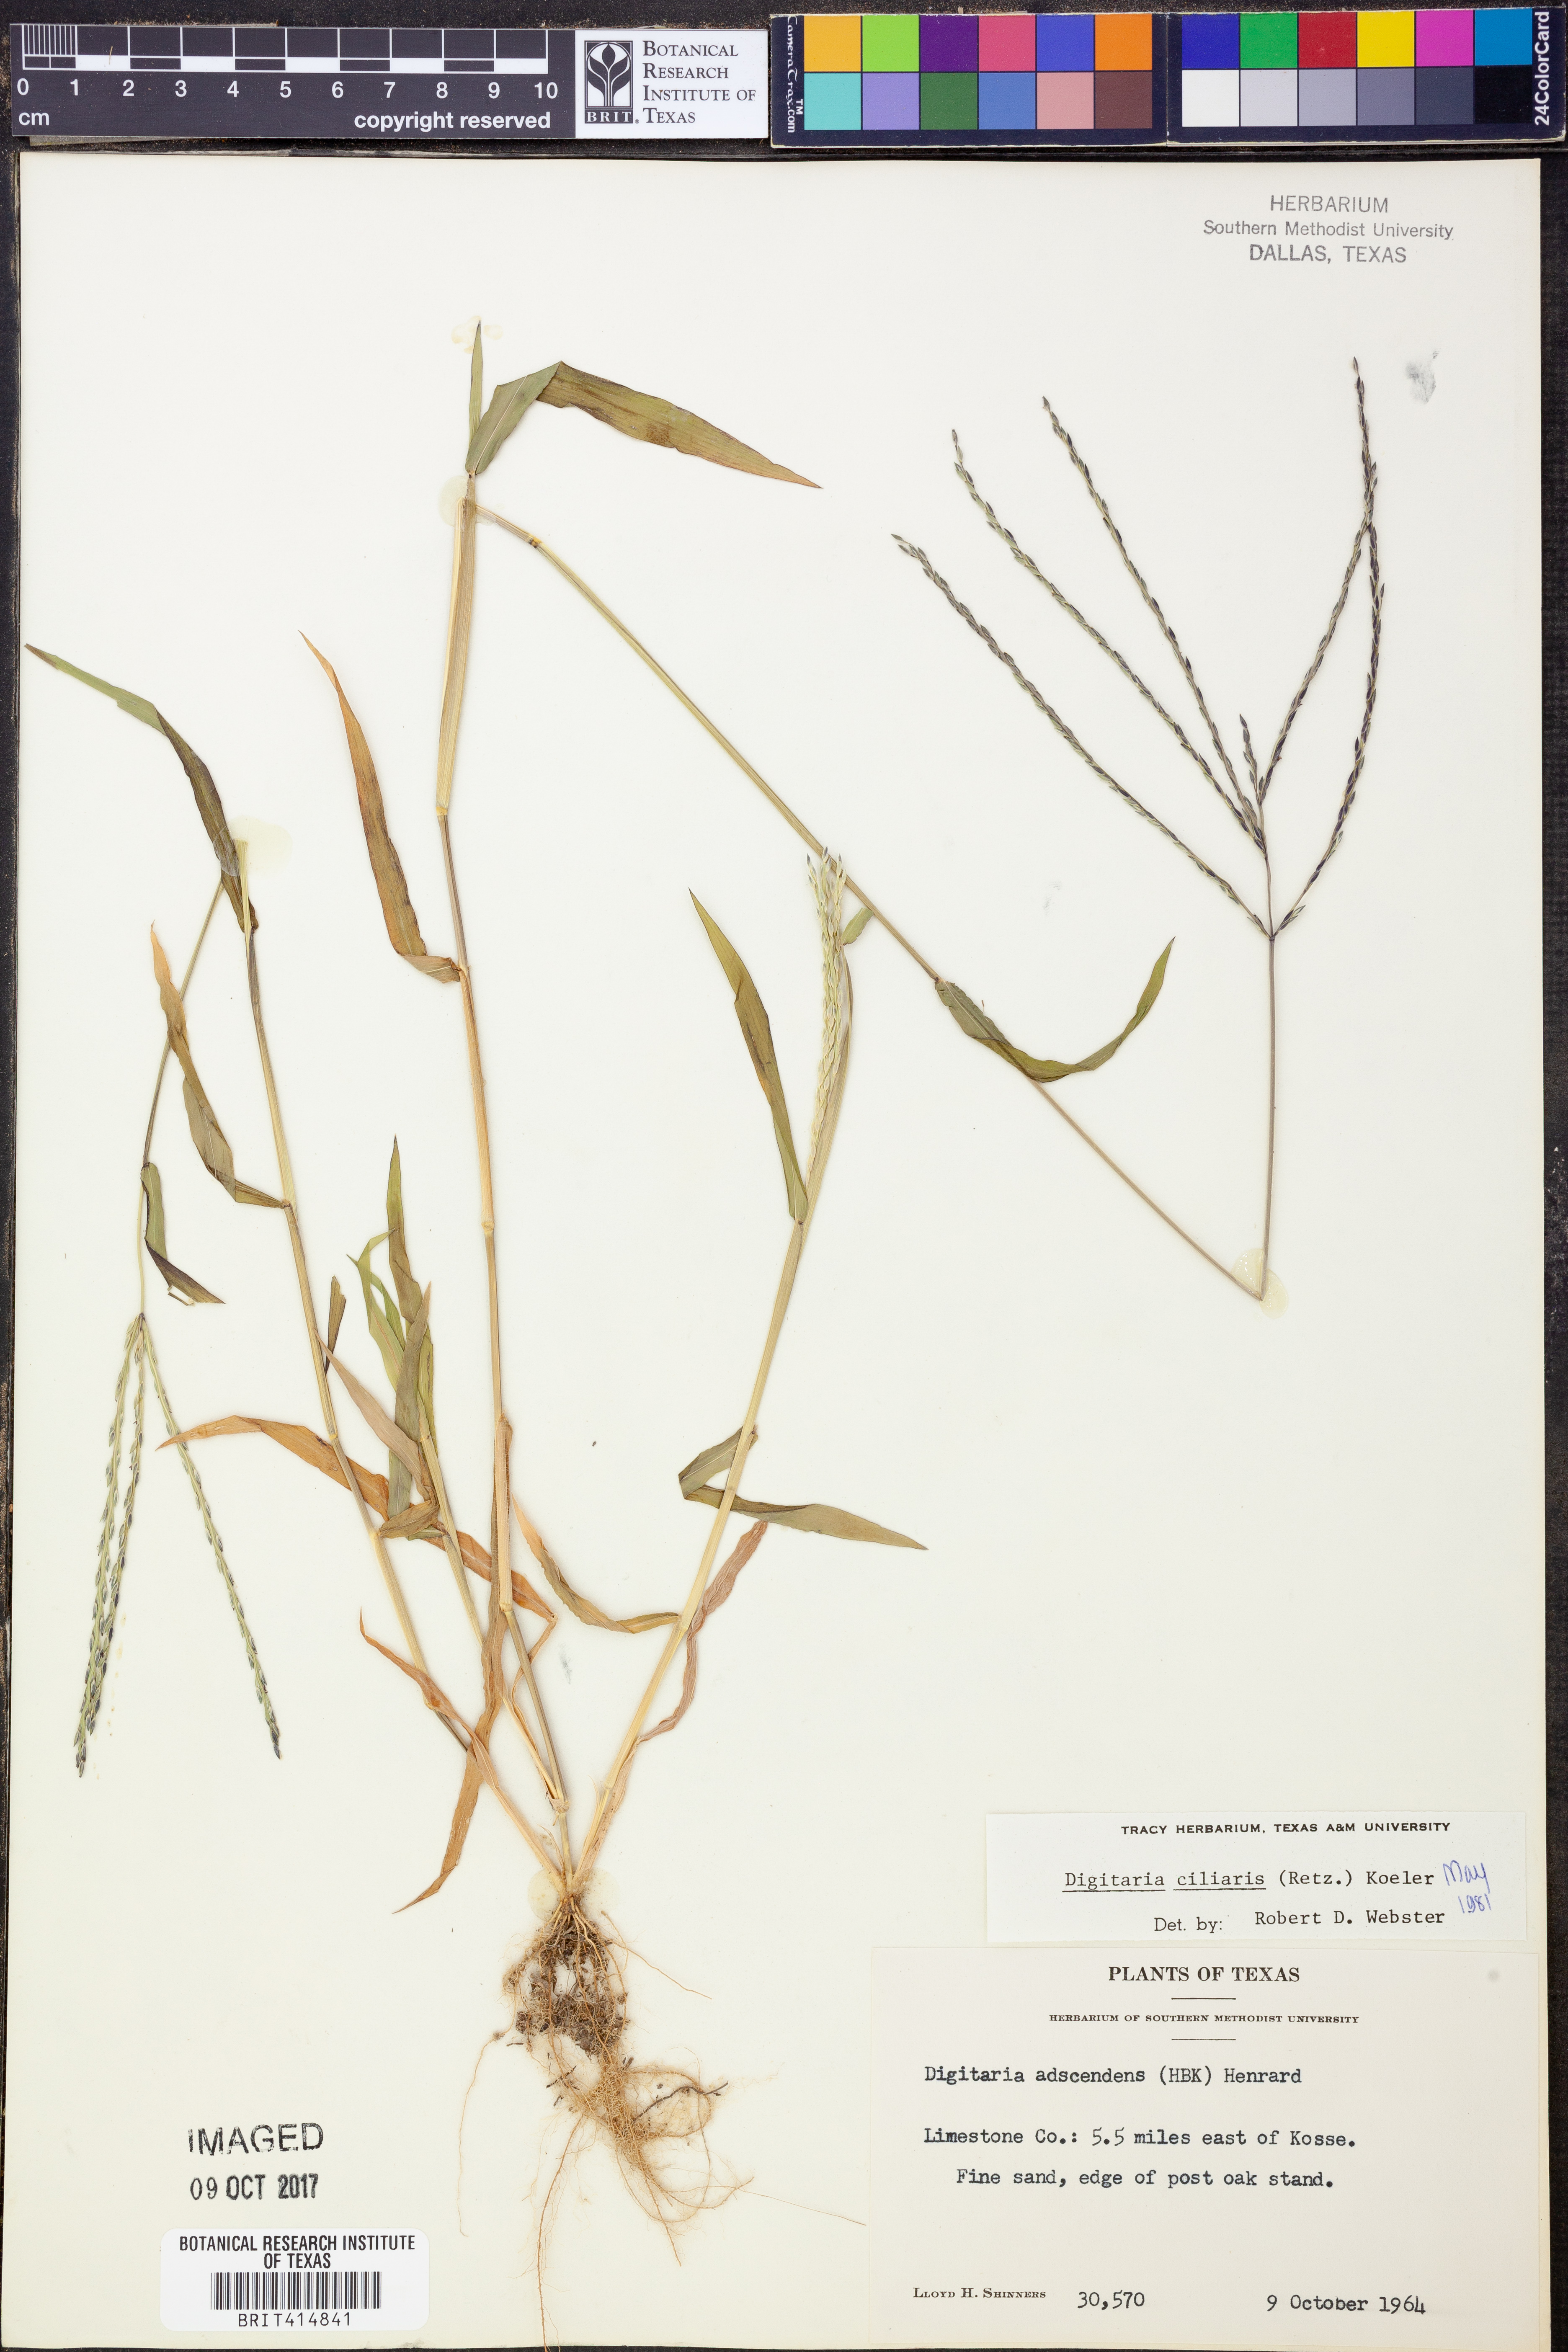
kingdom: Plantae
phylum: Tracheophyta
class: Liliopsida
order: Poales
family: Poaceae
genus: Digitaria
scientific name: Digitaria ciliaris
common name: Tropical finger-grass
